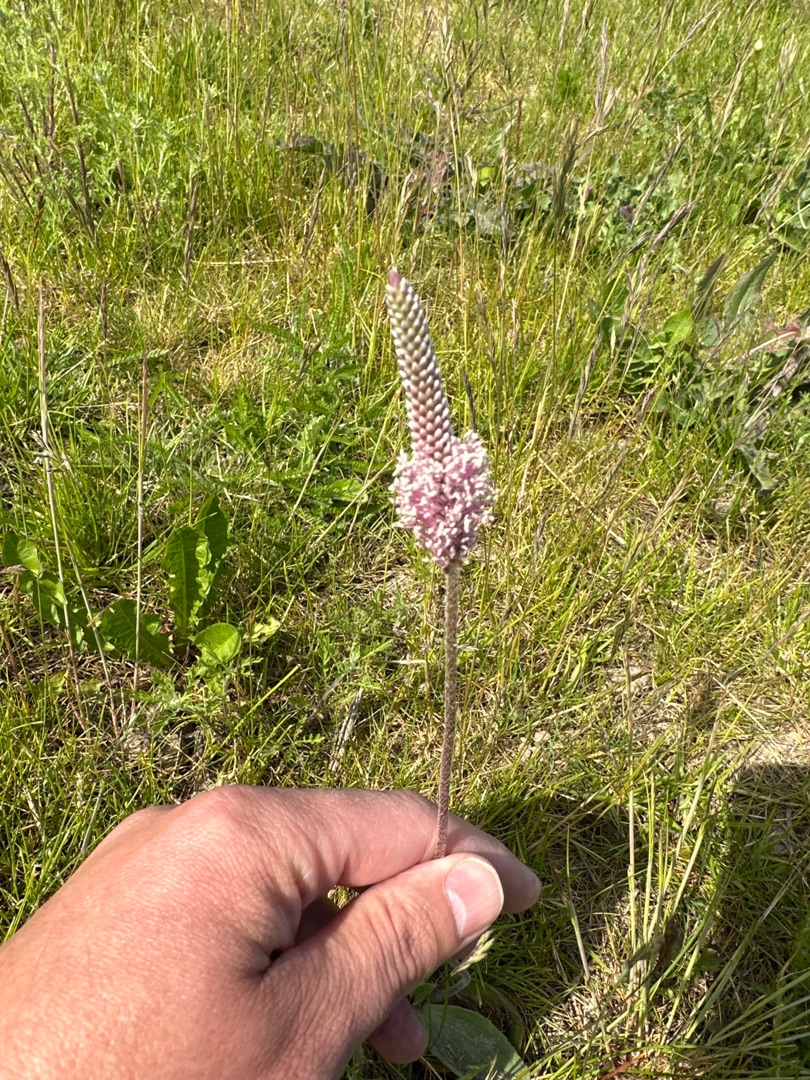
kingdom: Plantae
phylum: Tracheophyta
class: Magnoliopsida
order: Lamiales
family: Plantaginaceae
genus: Plantago
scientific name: Plantago media
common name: Dunet vejbred
